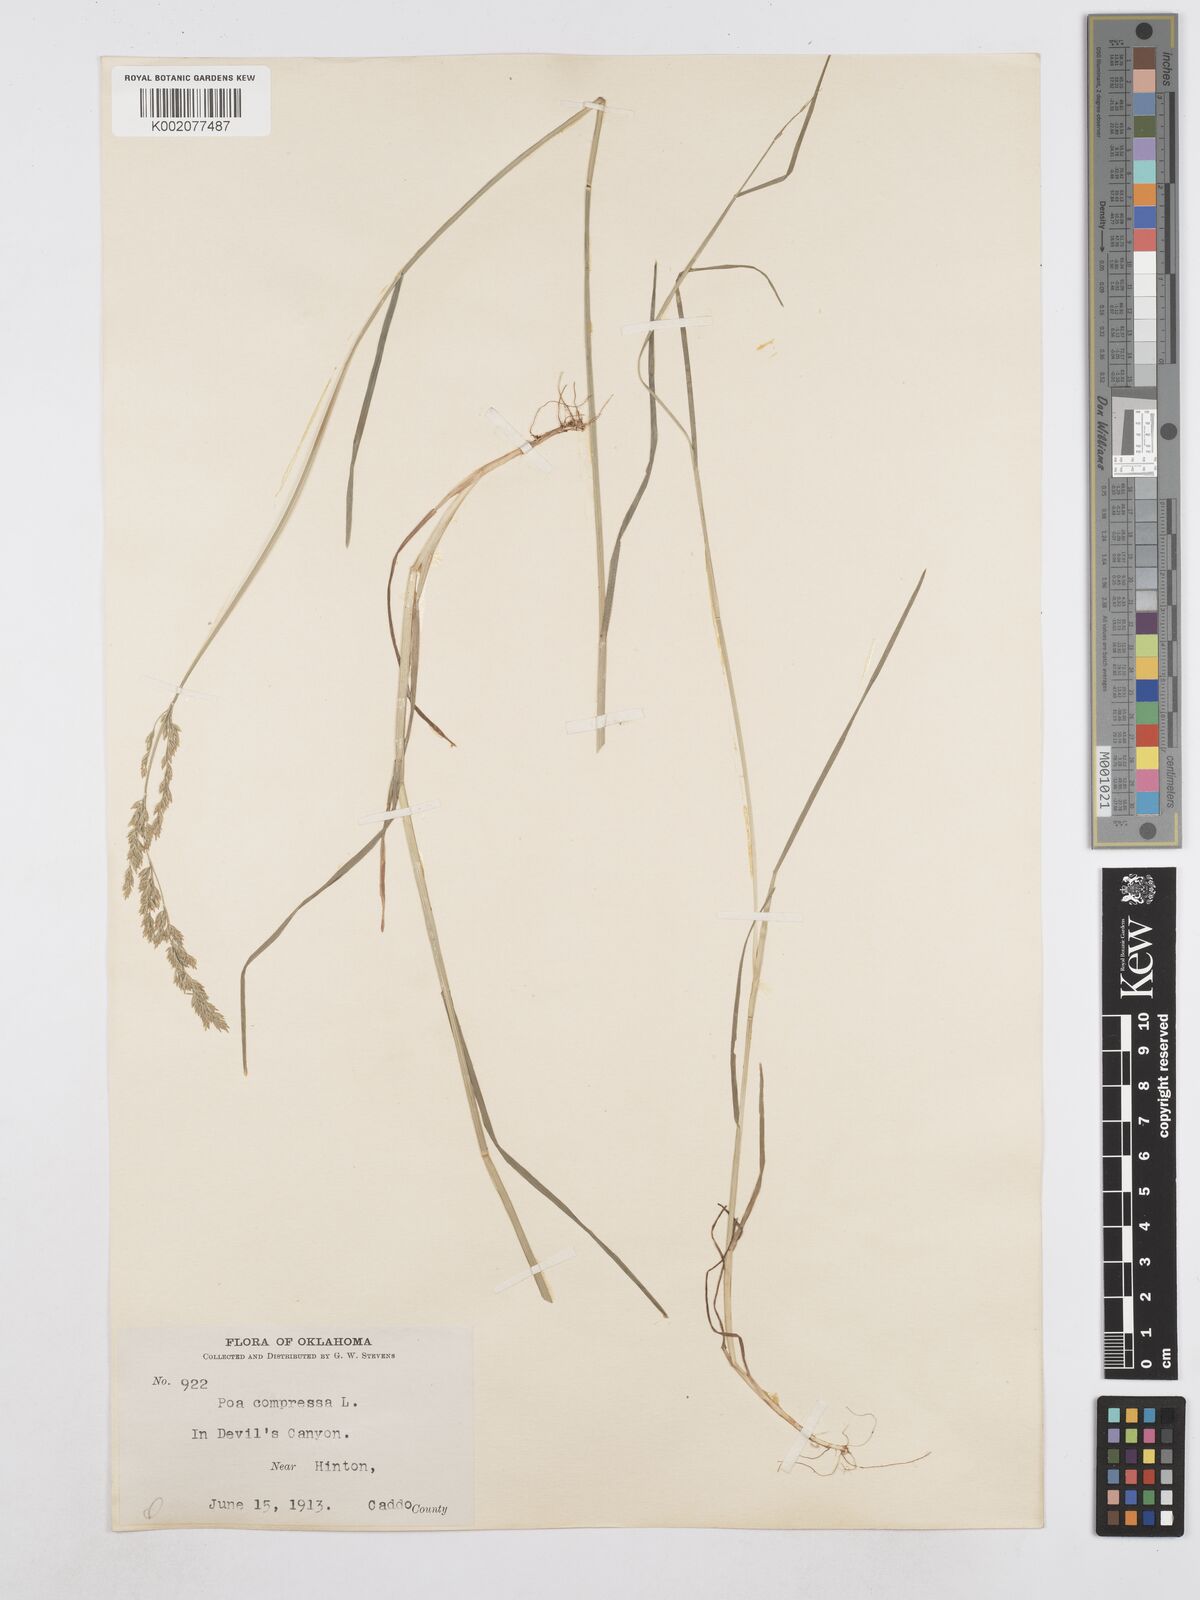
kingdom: Plantae
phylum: Tracheophyta
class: Liliopsida
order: Poales
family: Poaceae
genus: Poa
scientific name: Poa compressa
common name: Canada bluegrass
